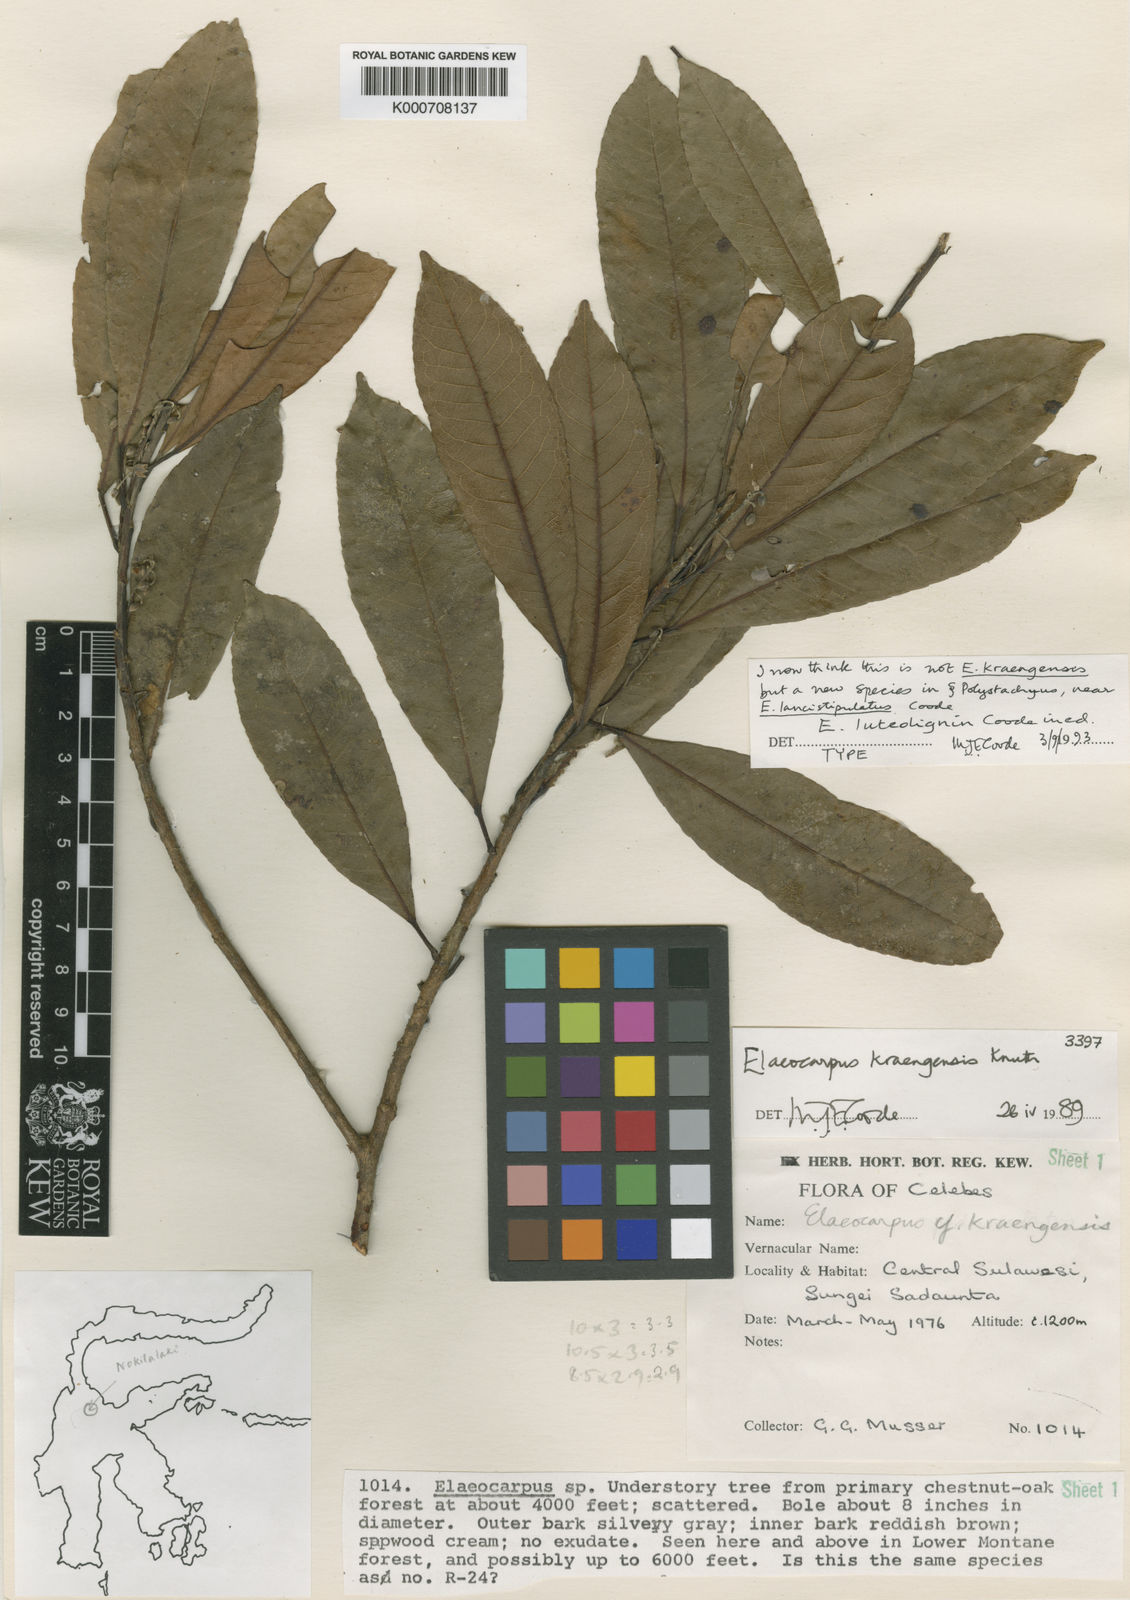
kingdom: Plantae
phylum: Tracheophyta
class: Magnoliopsida
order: Oxalidales
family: Elaeocarpaceae
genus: Elaeocarpus
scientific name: Elaeocarpus luteolignum
